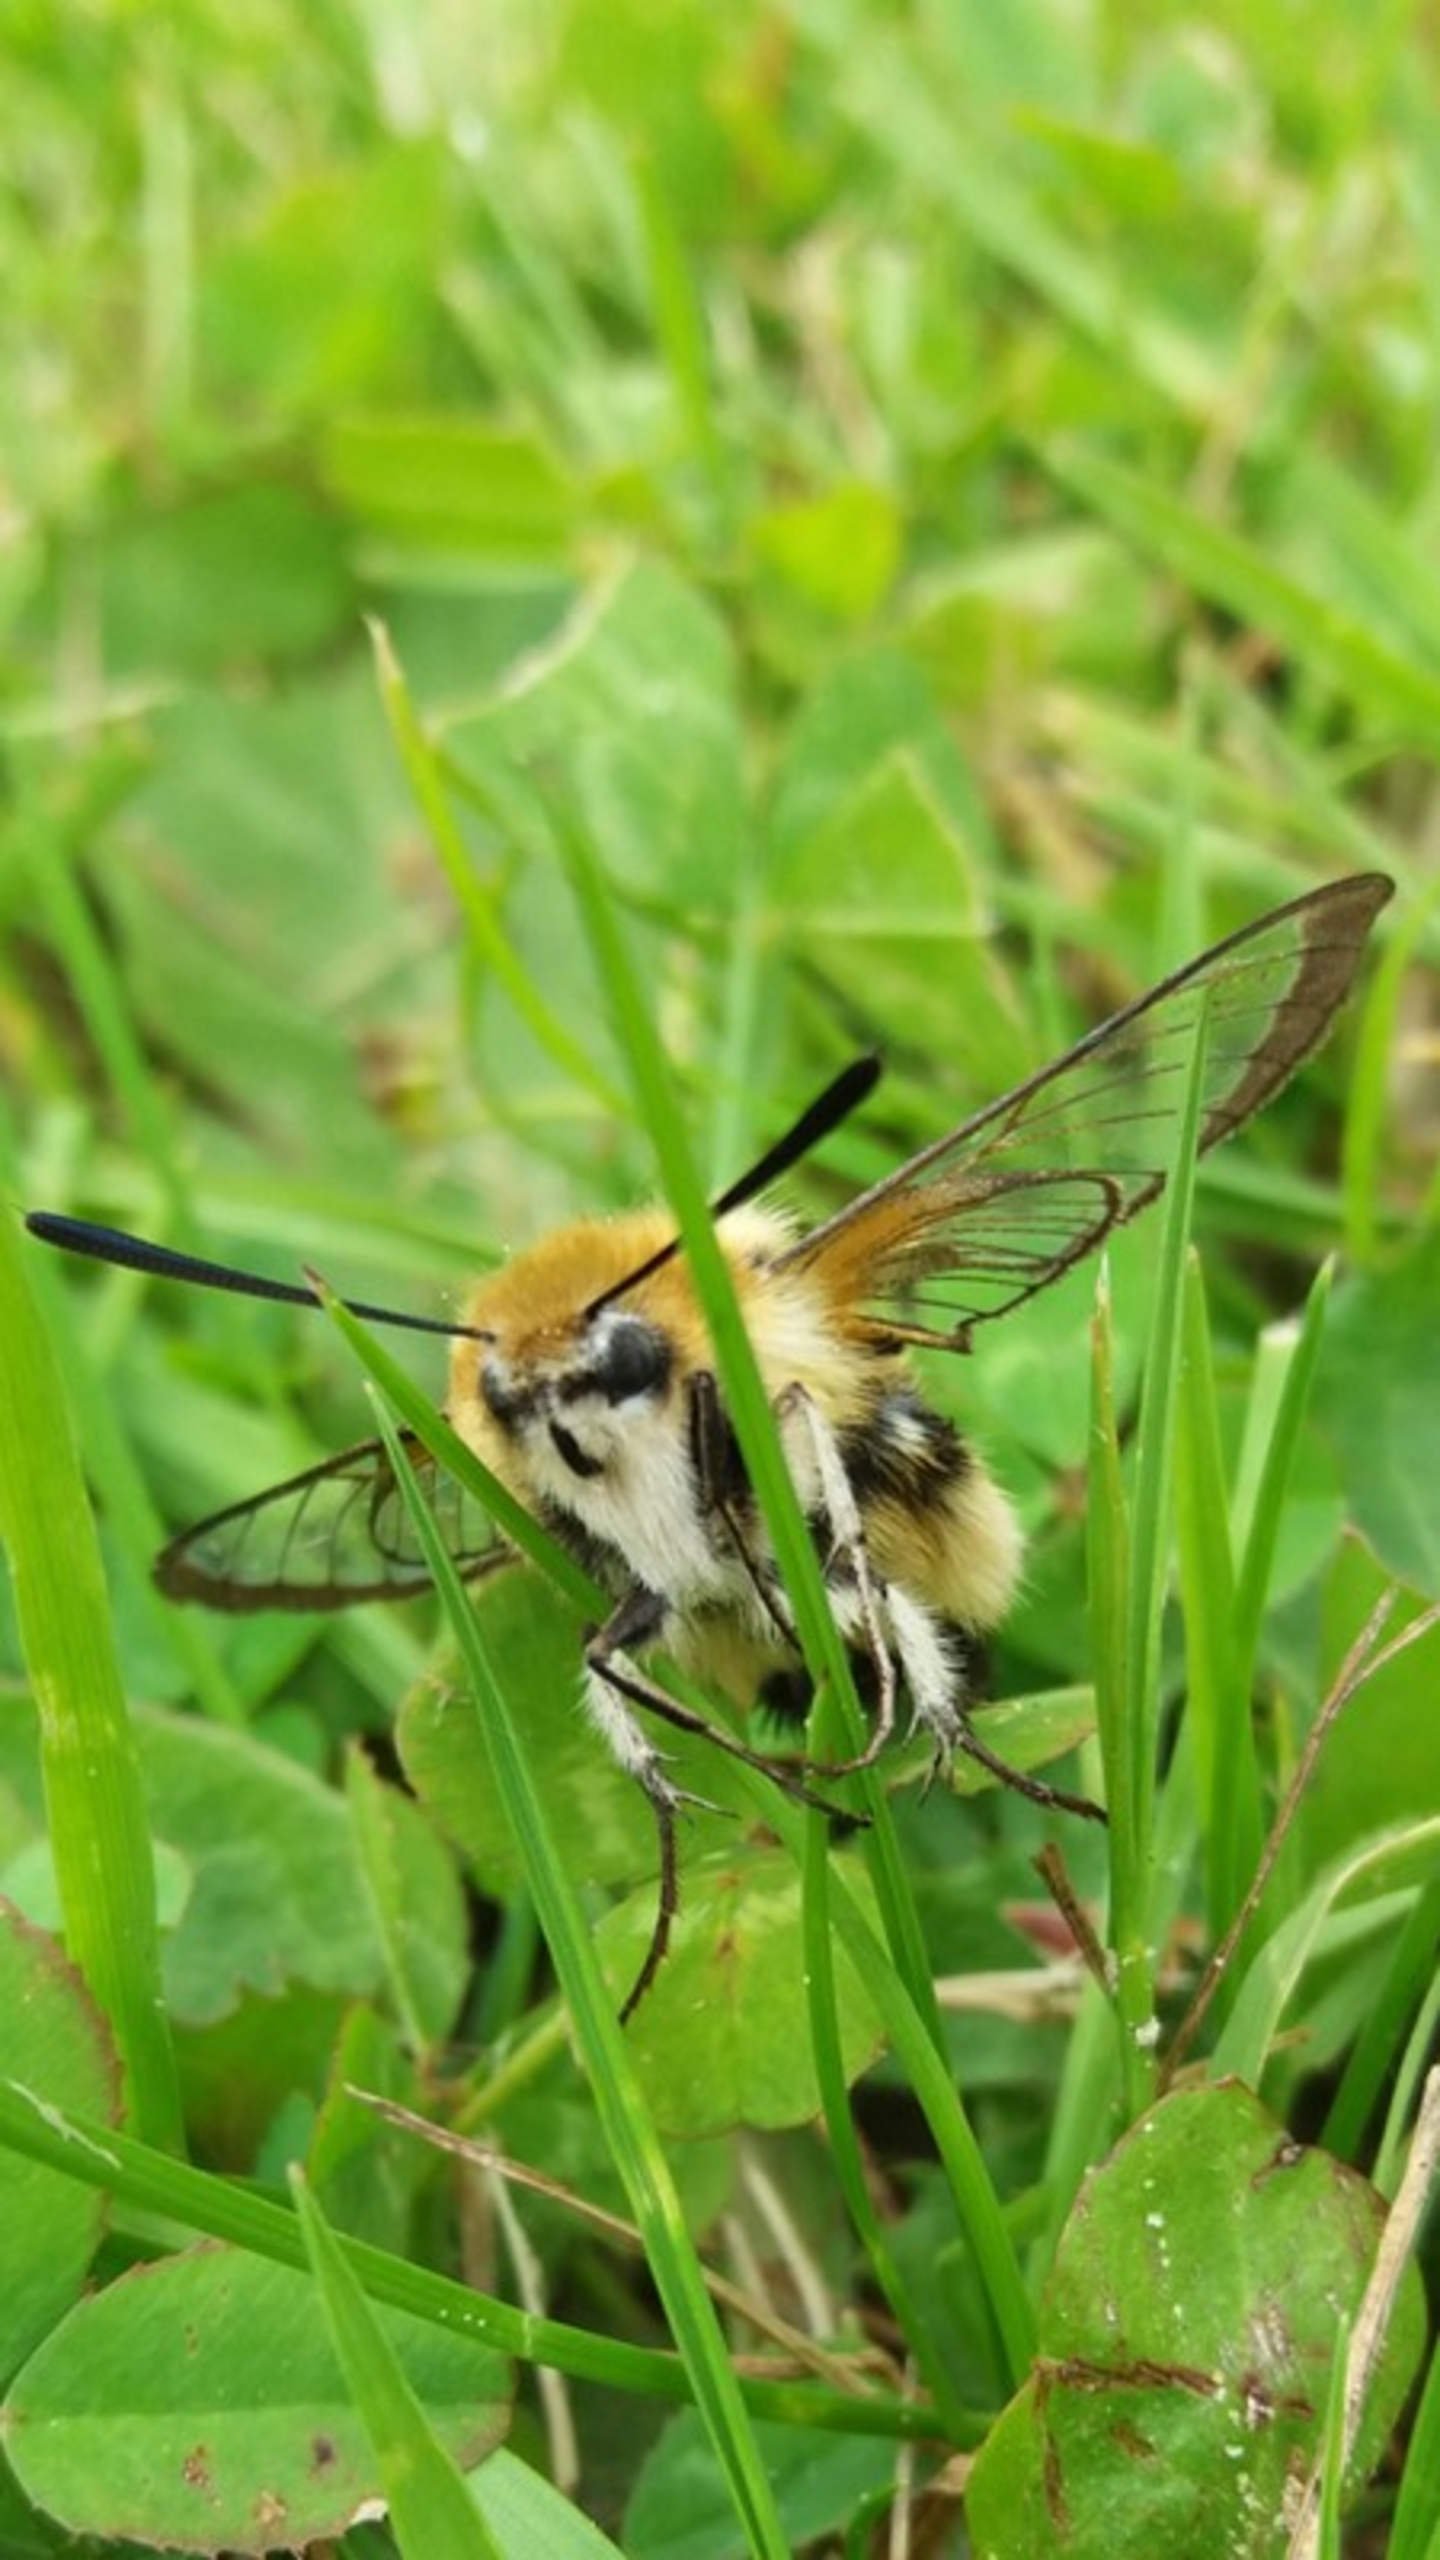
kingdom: Animalia
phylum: Arthropoda
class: Insecta
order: Lepidoptera
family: Sphingidae
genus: Hemaris
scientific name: Hemaris tityus
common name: Smalrandet humlebisværmer
